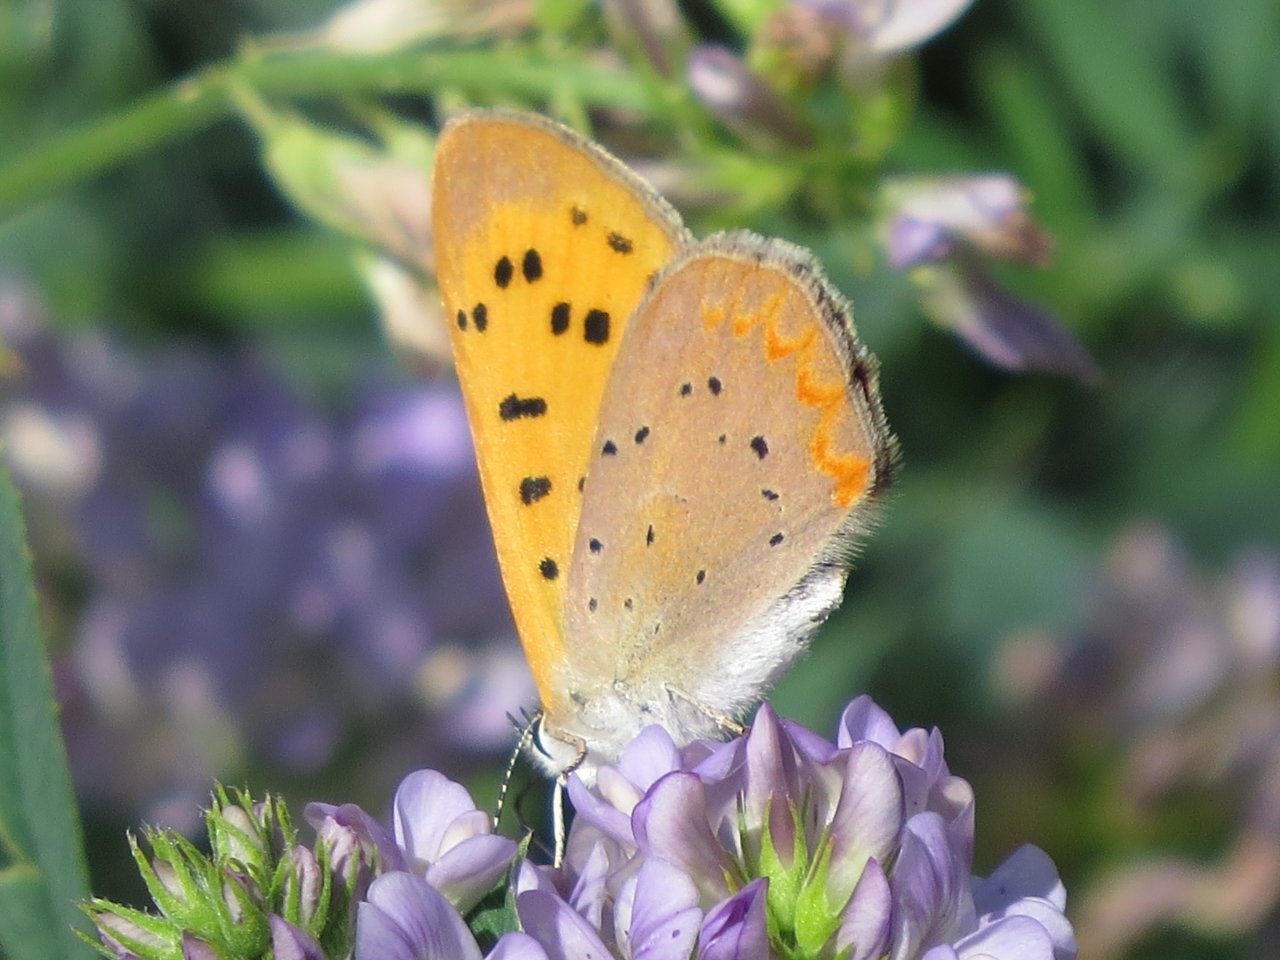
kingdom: Animalia
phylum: Arthropoda
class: Insecta
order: Lepidoptera
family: Lycaenidae
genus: Epidemia
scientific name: Epidemia dorcas
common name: Dorcas Copper
